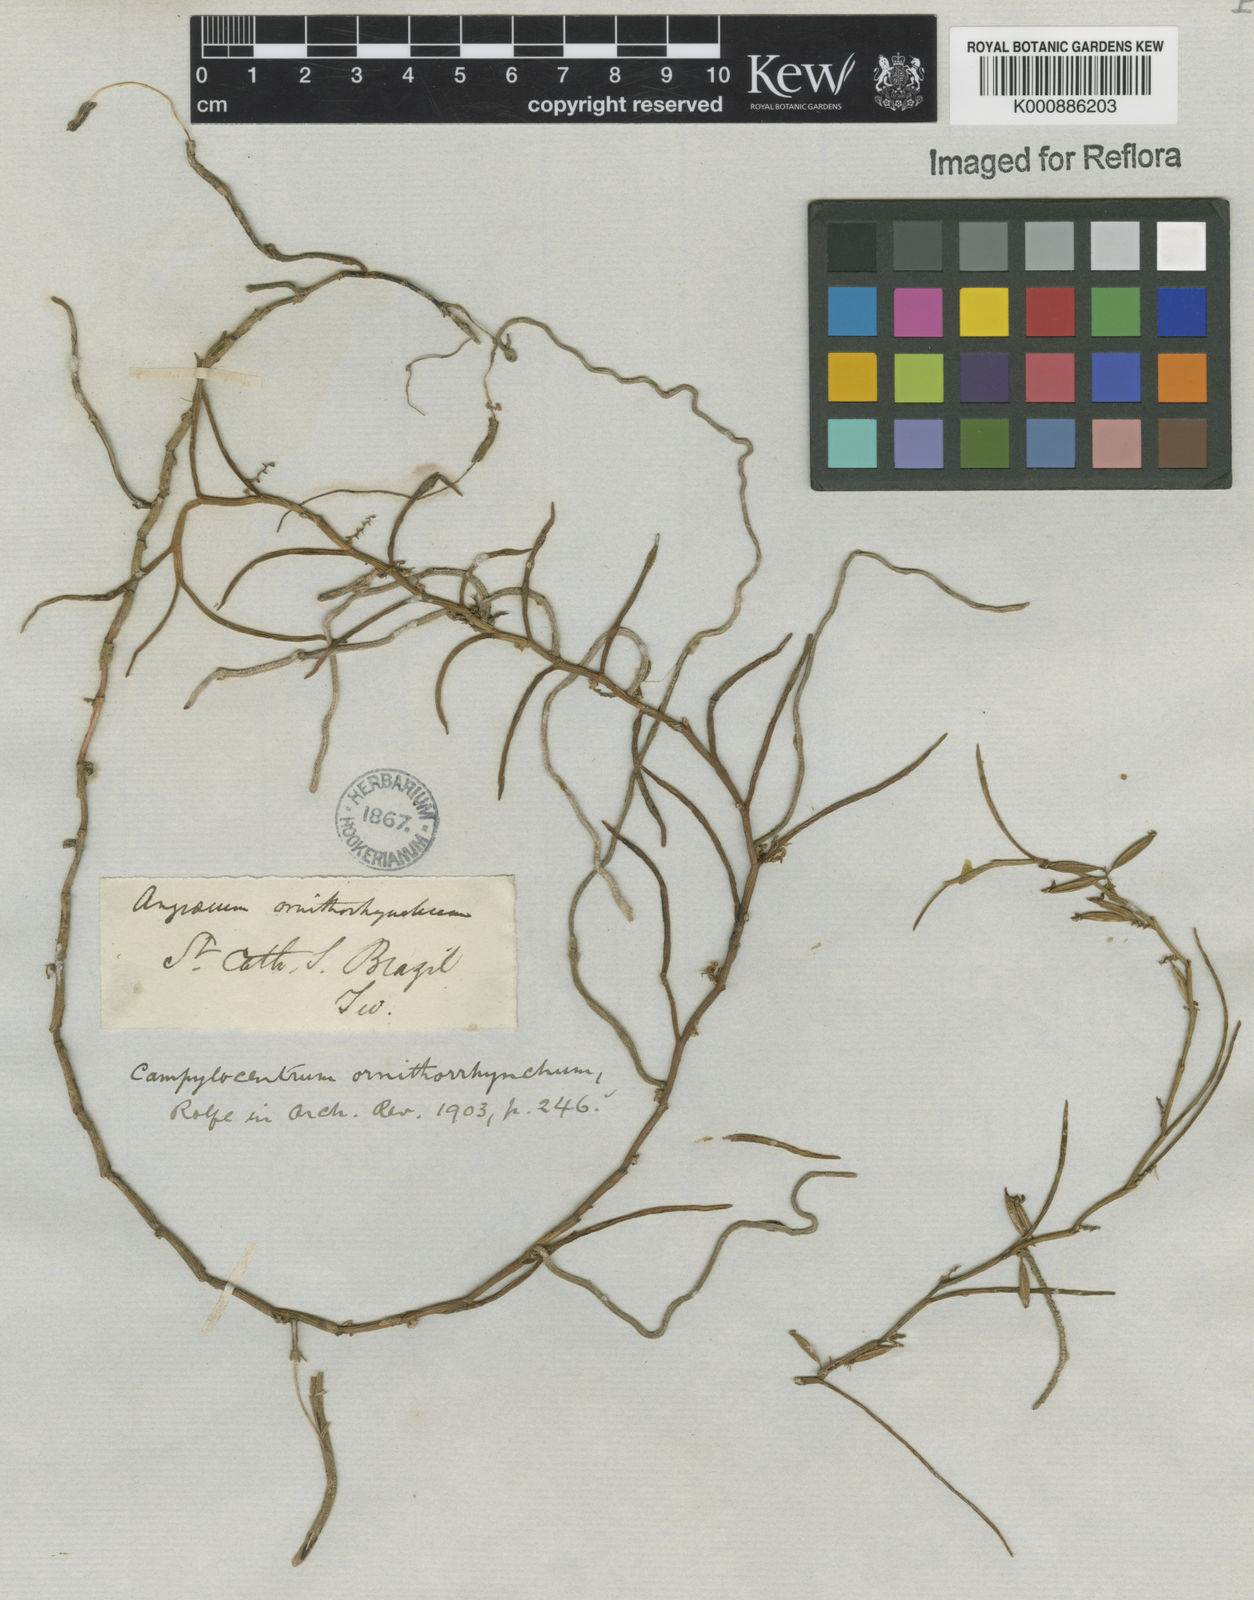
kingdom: Plantae
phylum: Tracheophyta
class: Liliopsida
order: Asparagales
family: Orchidaceae
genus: Campylocentrum
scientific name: Campylocentrum ornithorrhynchum
